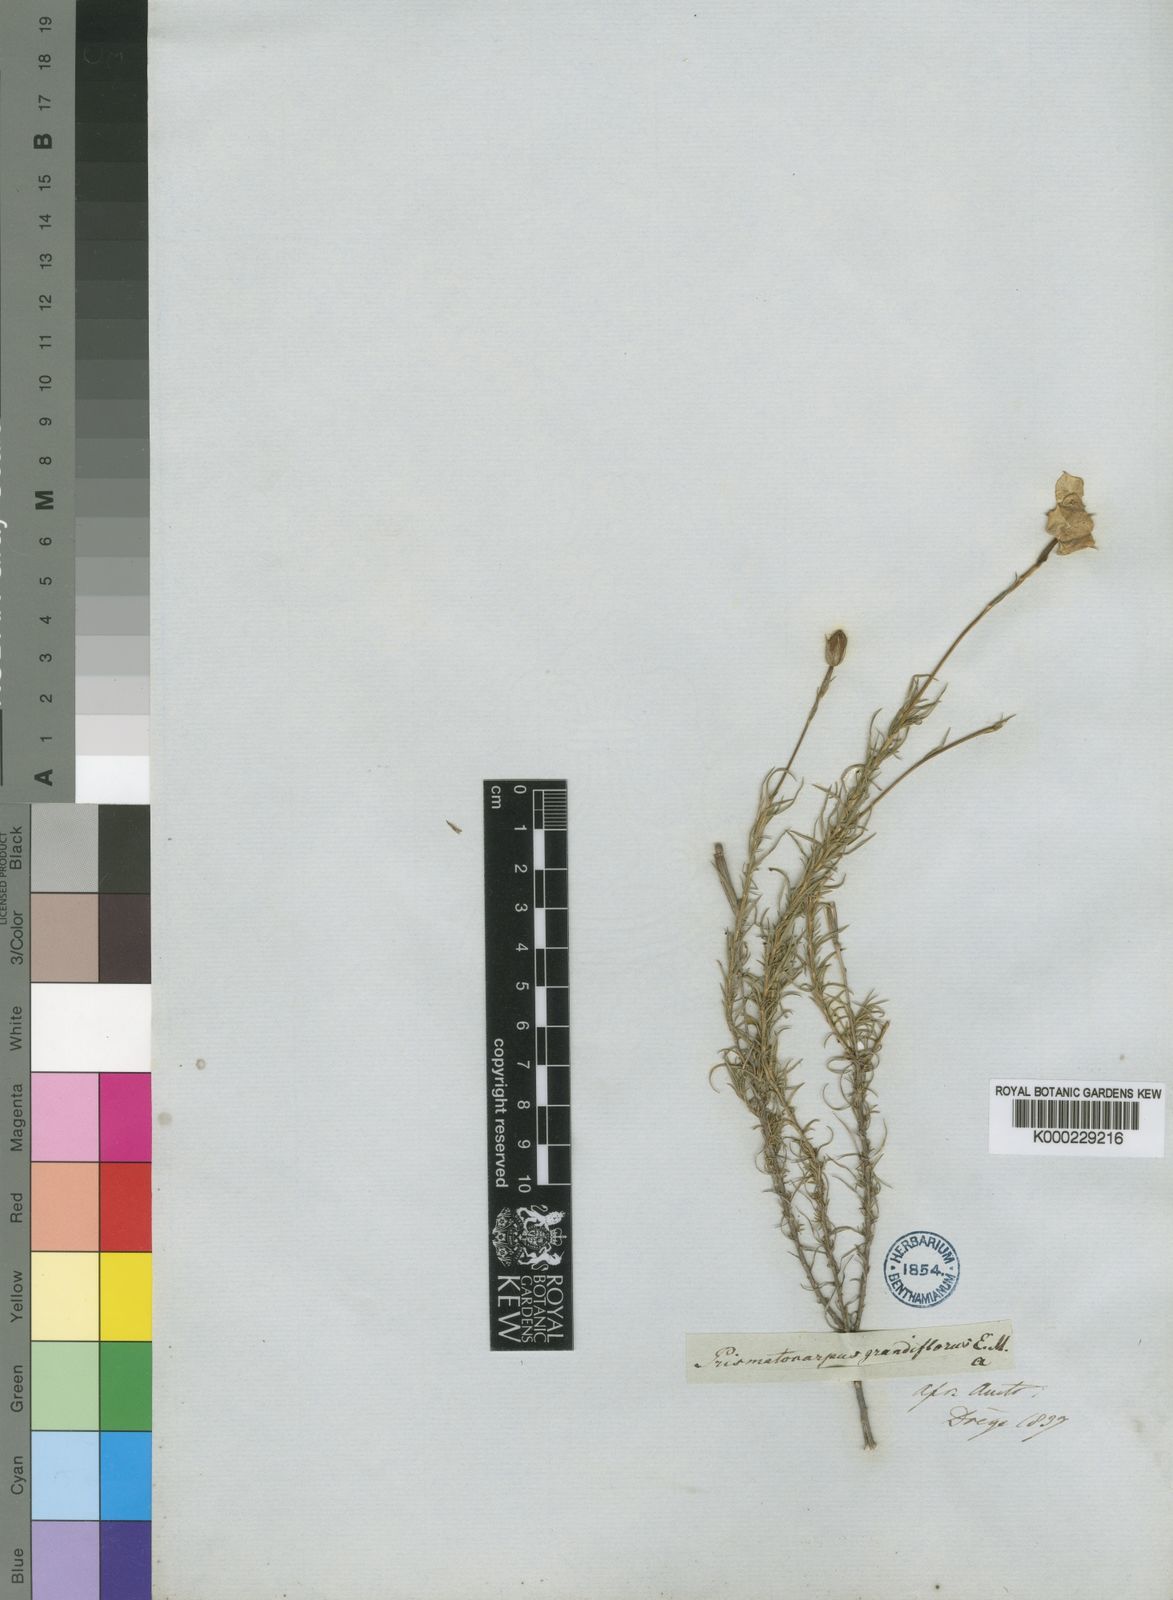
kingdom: Plantae
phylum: Tracheophyta
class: Magnoliopsida
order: Asterales
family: Campanulaceae
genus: Prismatocarpus
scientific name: Prismatocarpus pedunculatus
